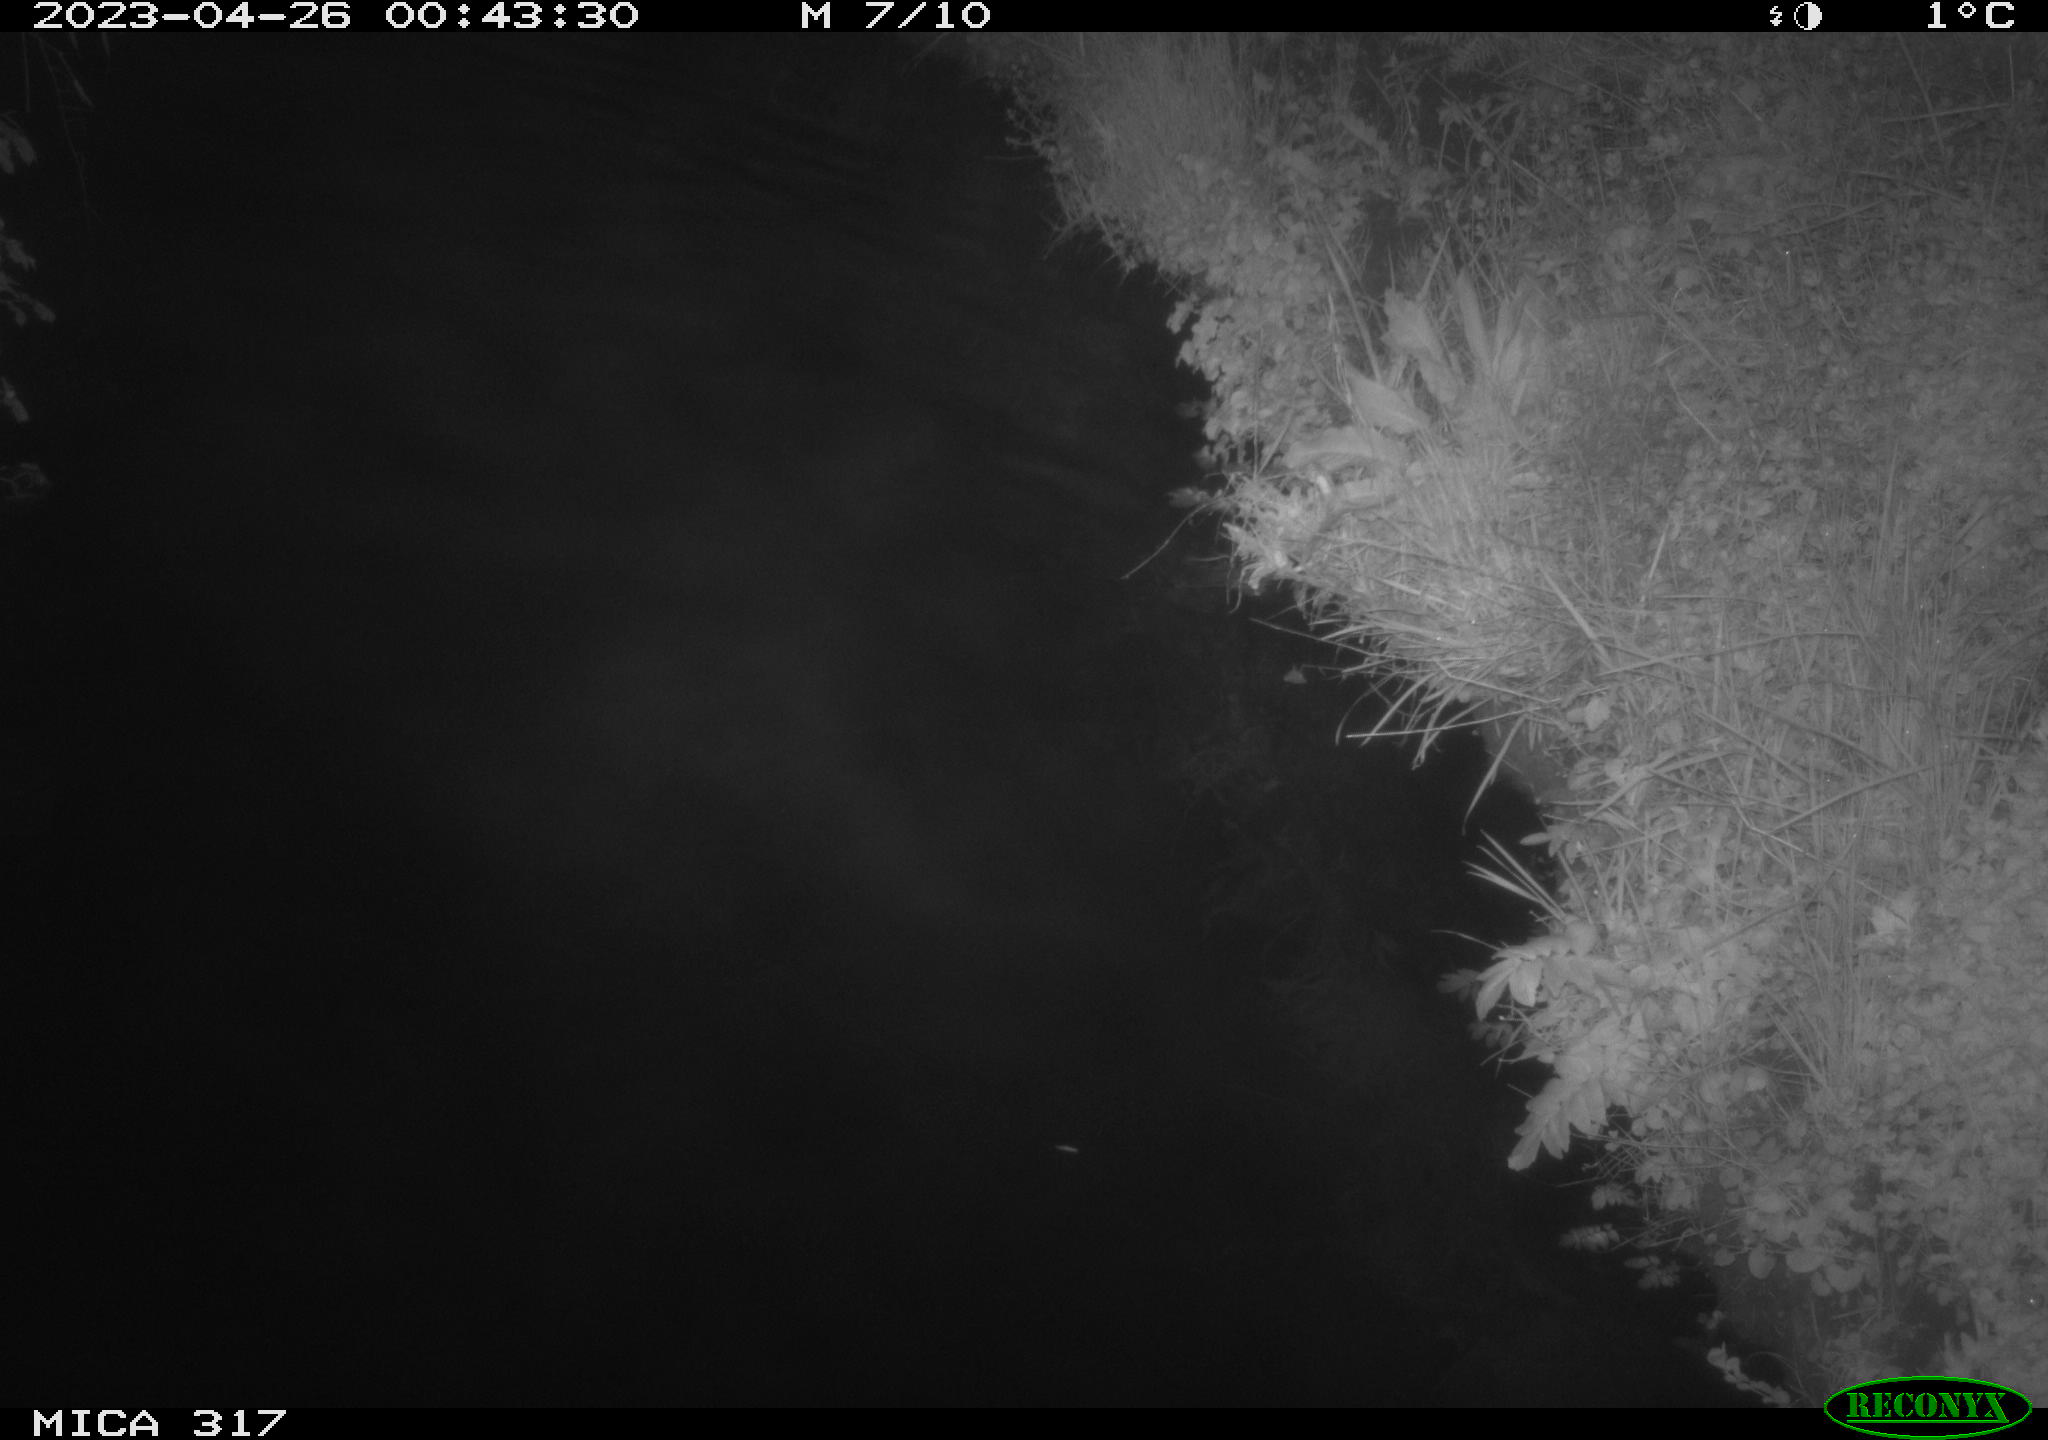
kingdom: Animalia
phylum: Chordata
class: Aves
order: Anseriformes
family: Anatidae
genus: Anas
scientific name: Anas
